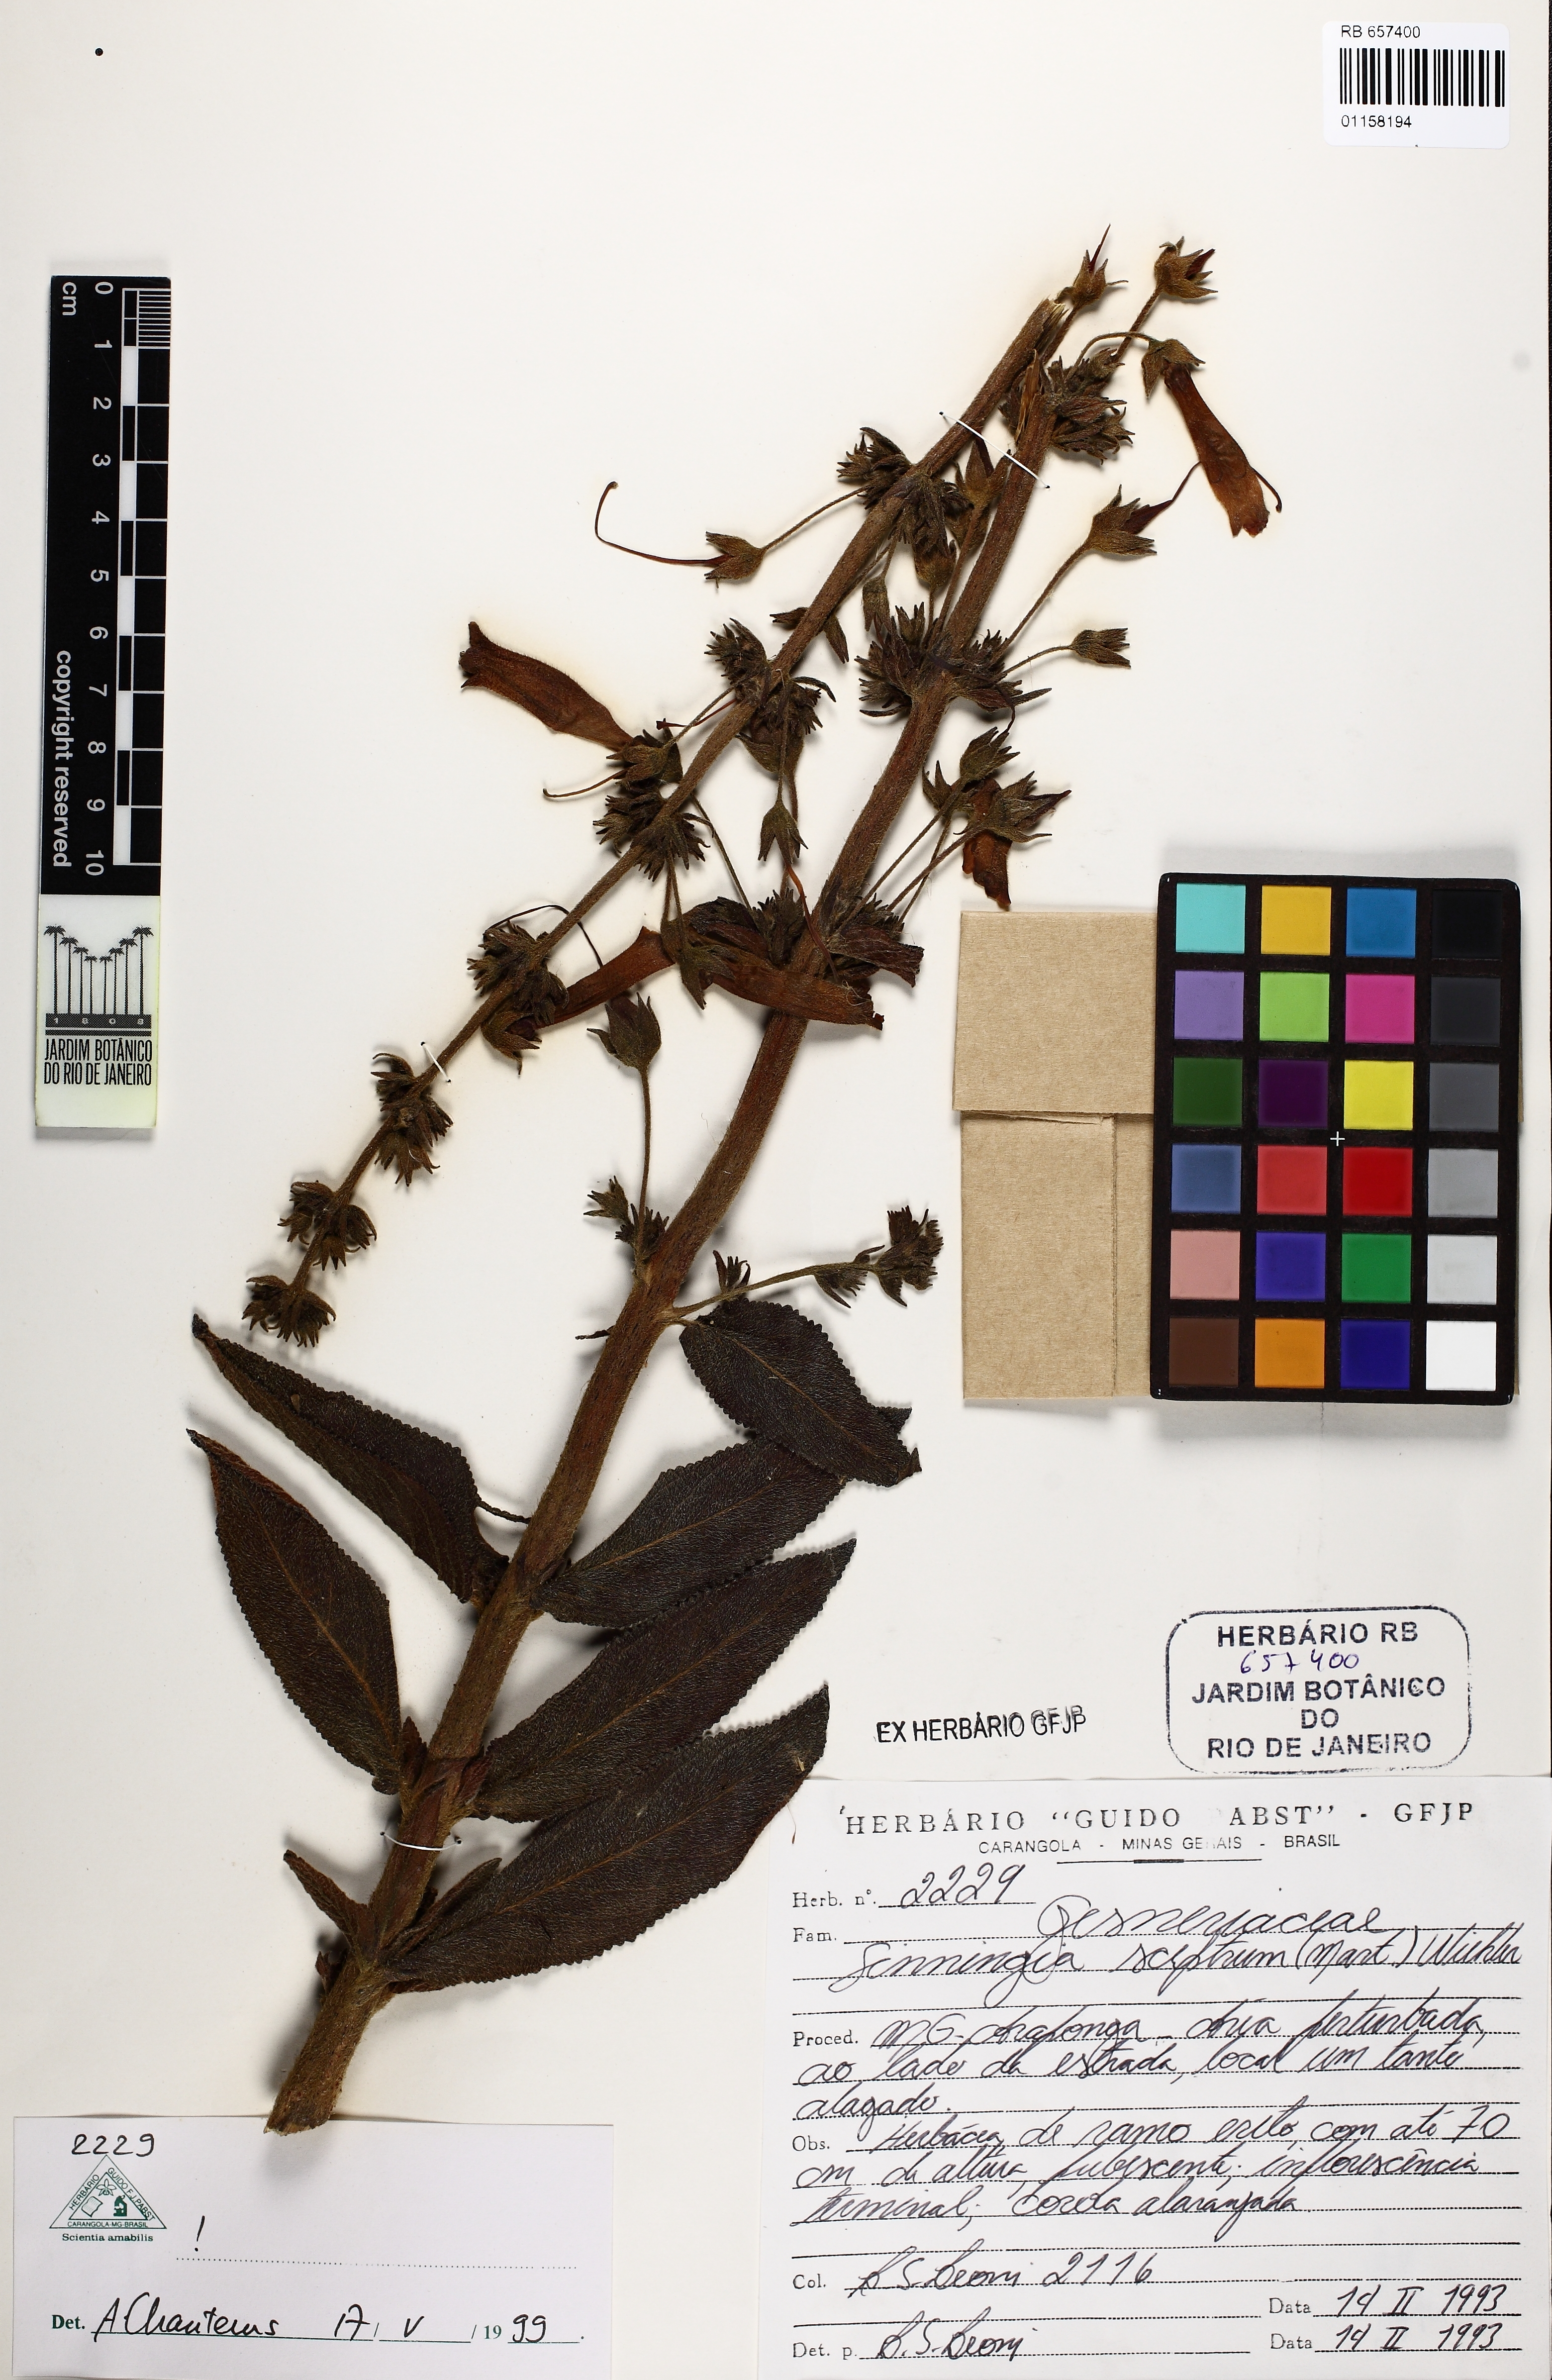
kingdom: Plantae
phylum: Tracheophyta
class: Magnoliopsida
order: Lamiales
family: Gesneriaceae
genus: Sinningia
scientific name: Sinningia sceptrum
